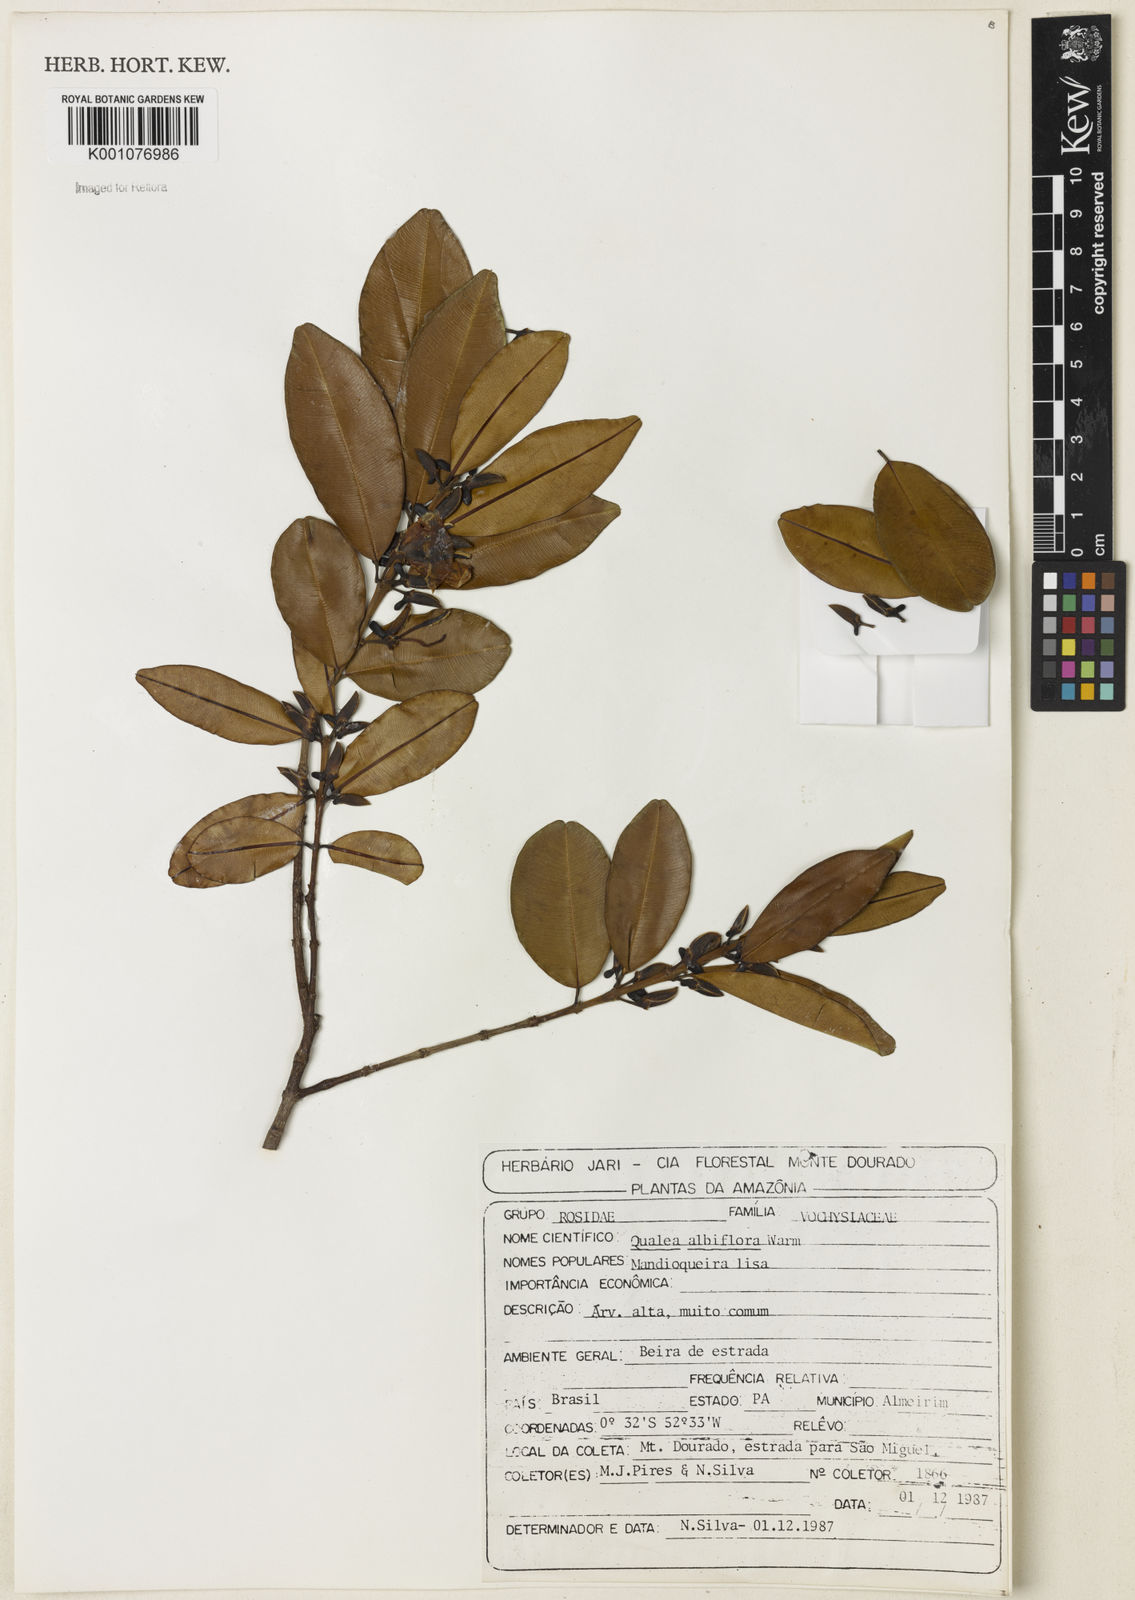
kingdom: Plantae
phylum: Tracheophyta
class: Magnoliopsida
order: Myrtales
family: Vochysiaceae
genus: Ruizterania
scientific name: Ruizterania albiflora
